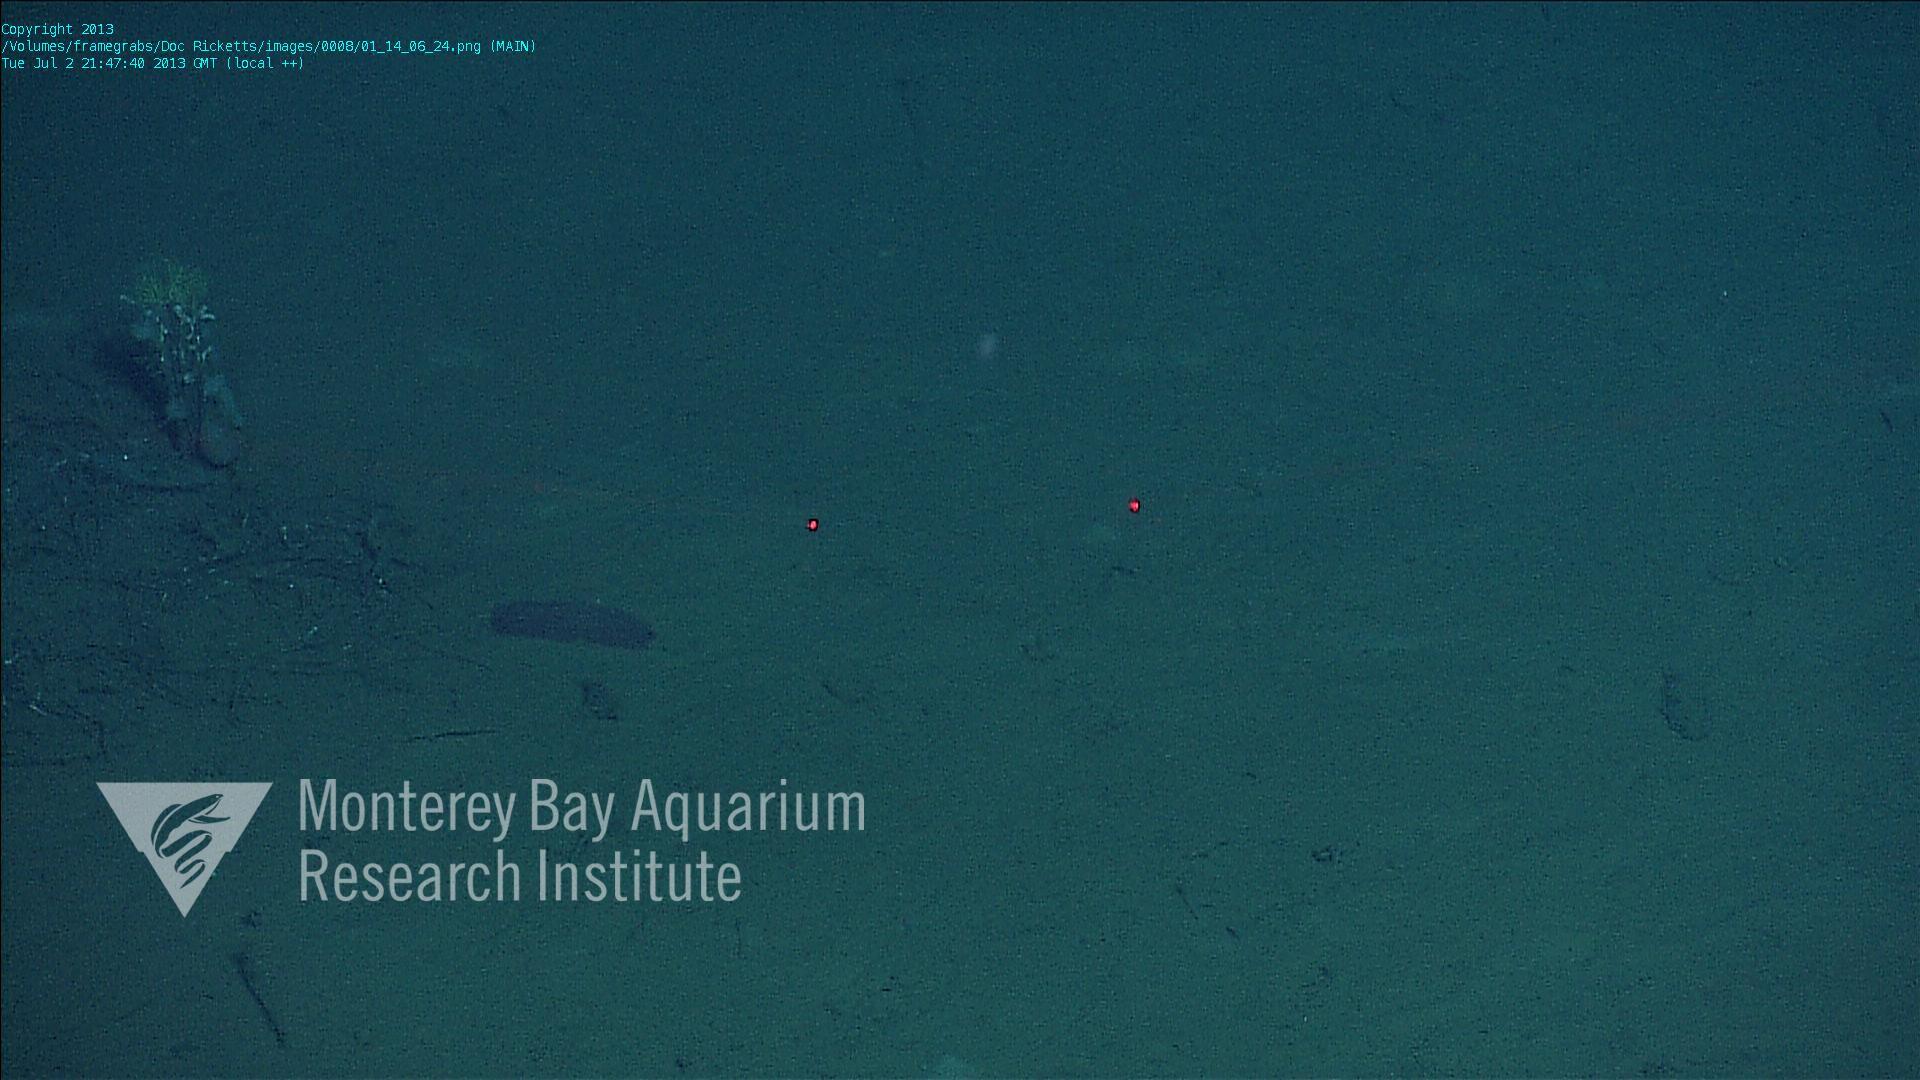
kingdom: Animalia
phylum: Porifera
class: Hexactinellida
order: Lyssacinosida
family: Rossellidae
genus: Bathydorus
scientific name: Bathydorus spinosus
